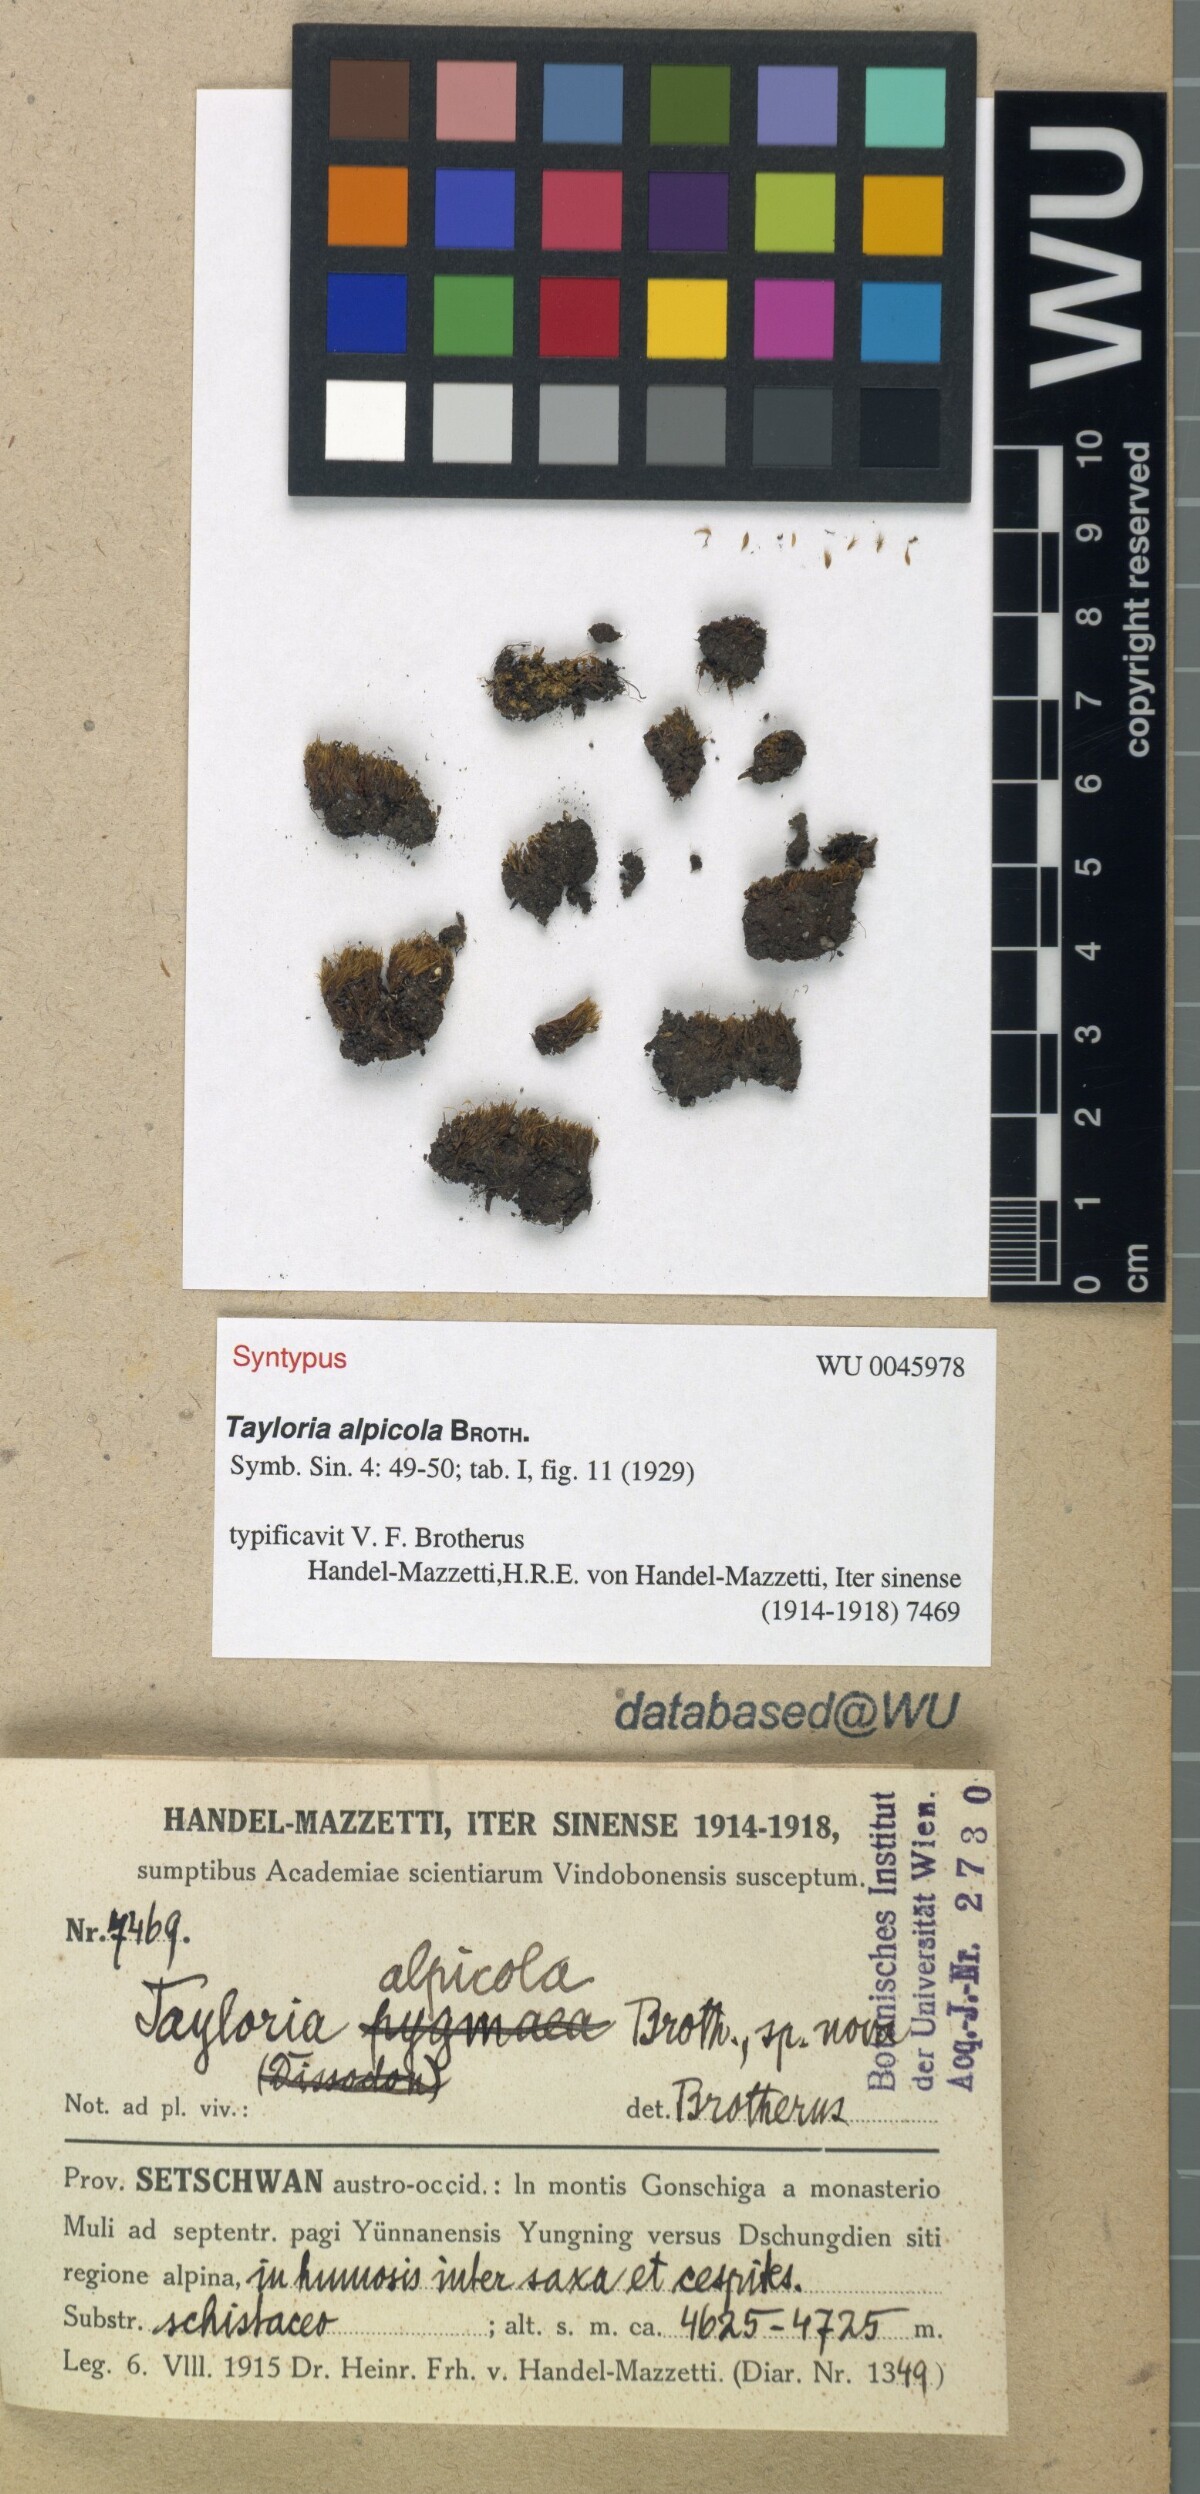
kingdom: Plantae
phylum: Bryophyta
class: Bryopsida
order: Splachnales
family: Splachnaceae
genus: Tayloria
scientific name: Tayloria alpicola
